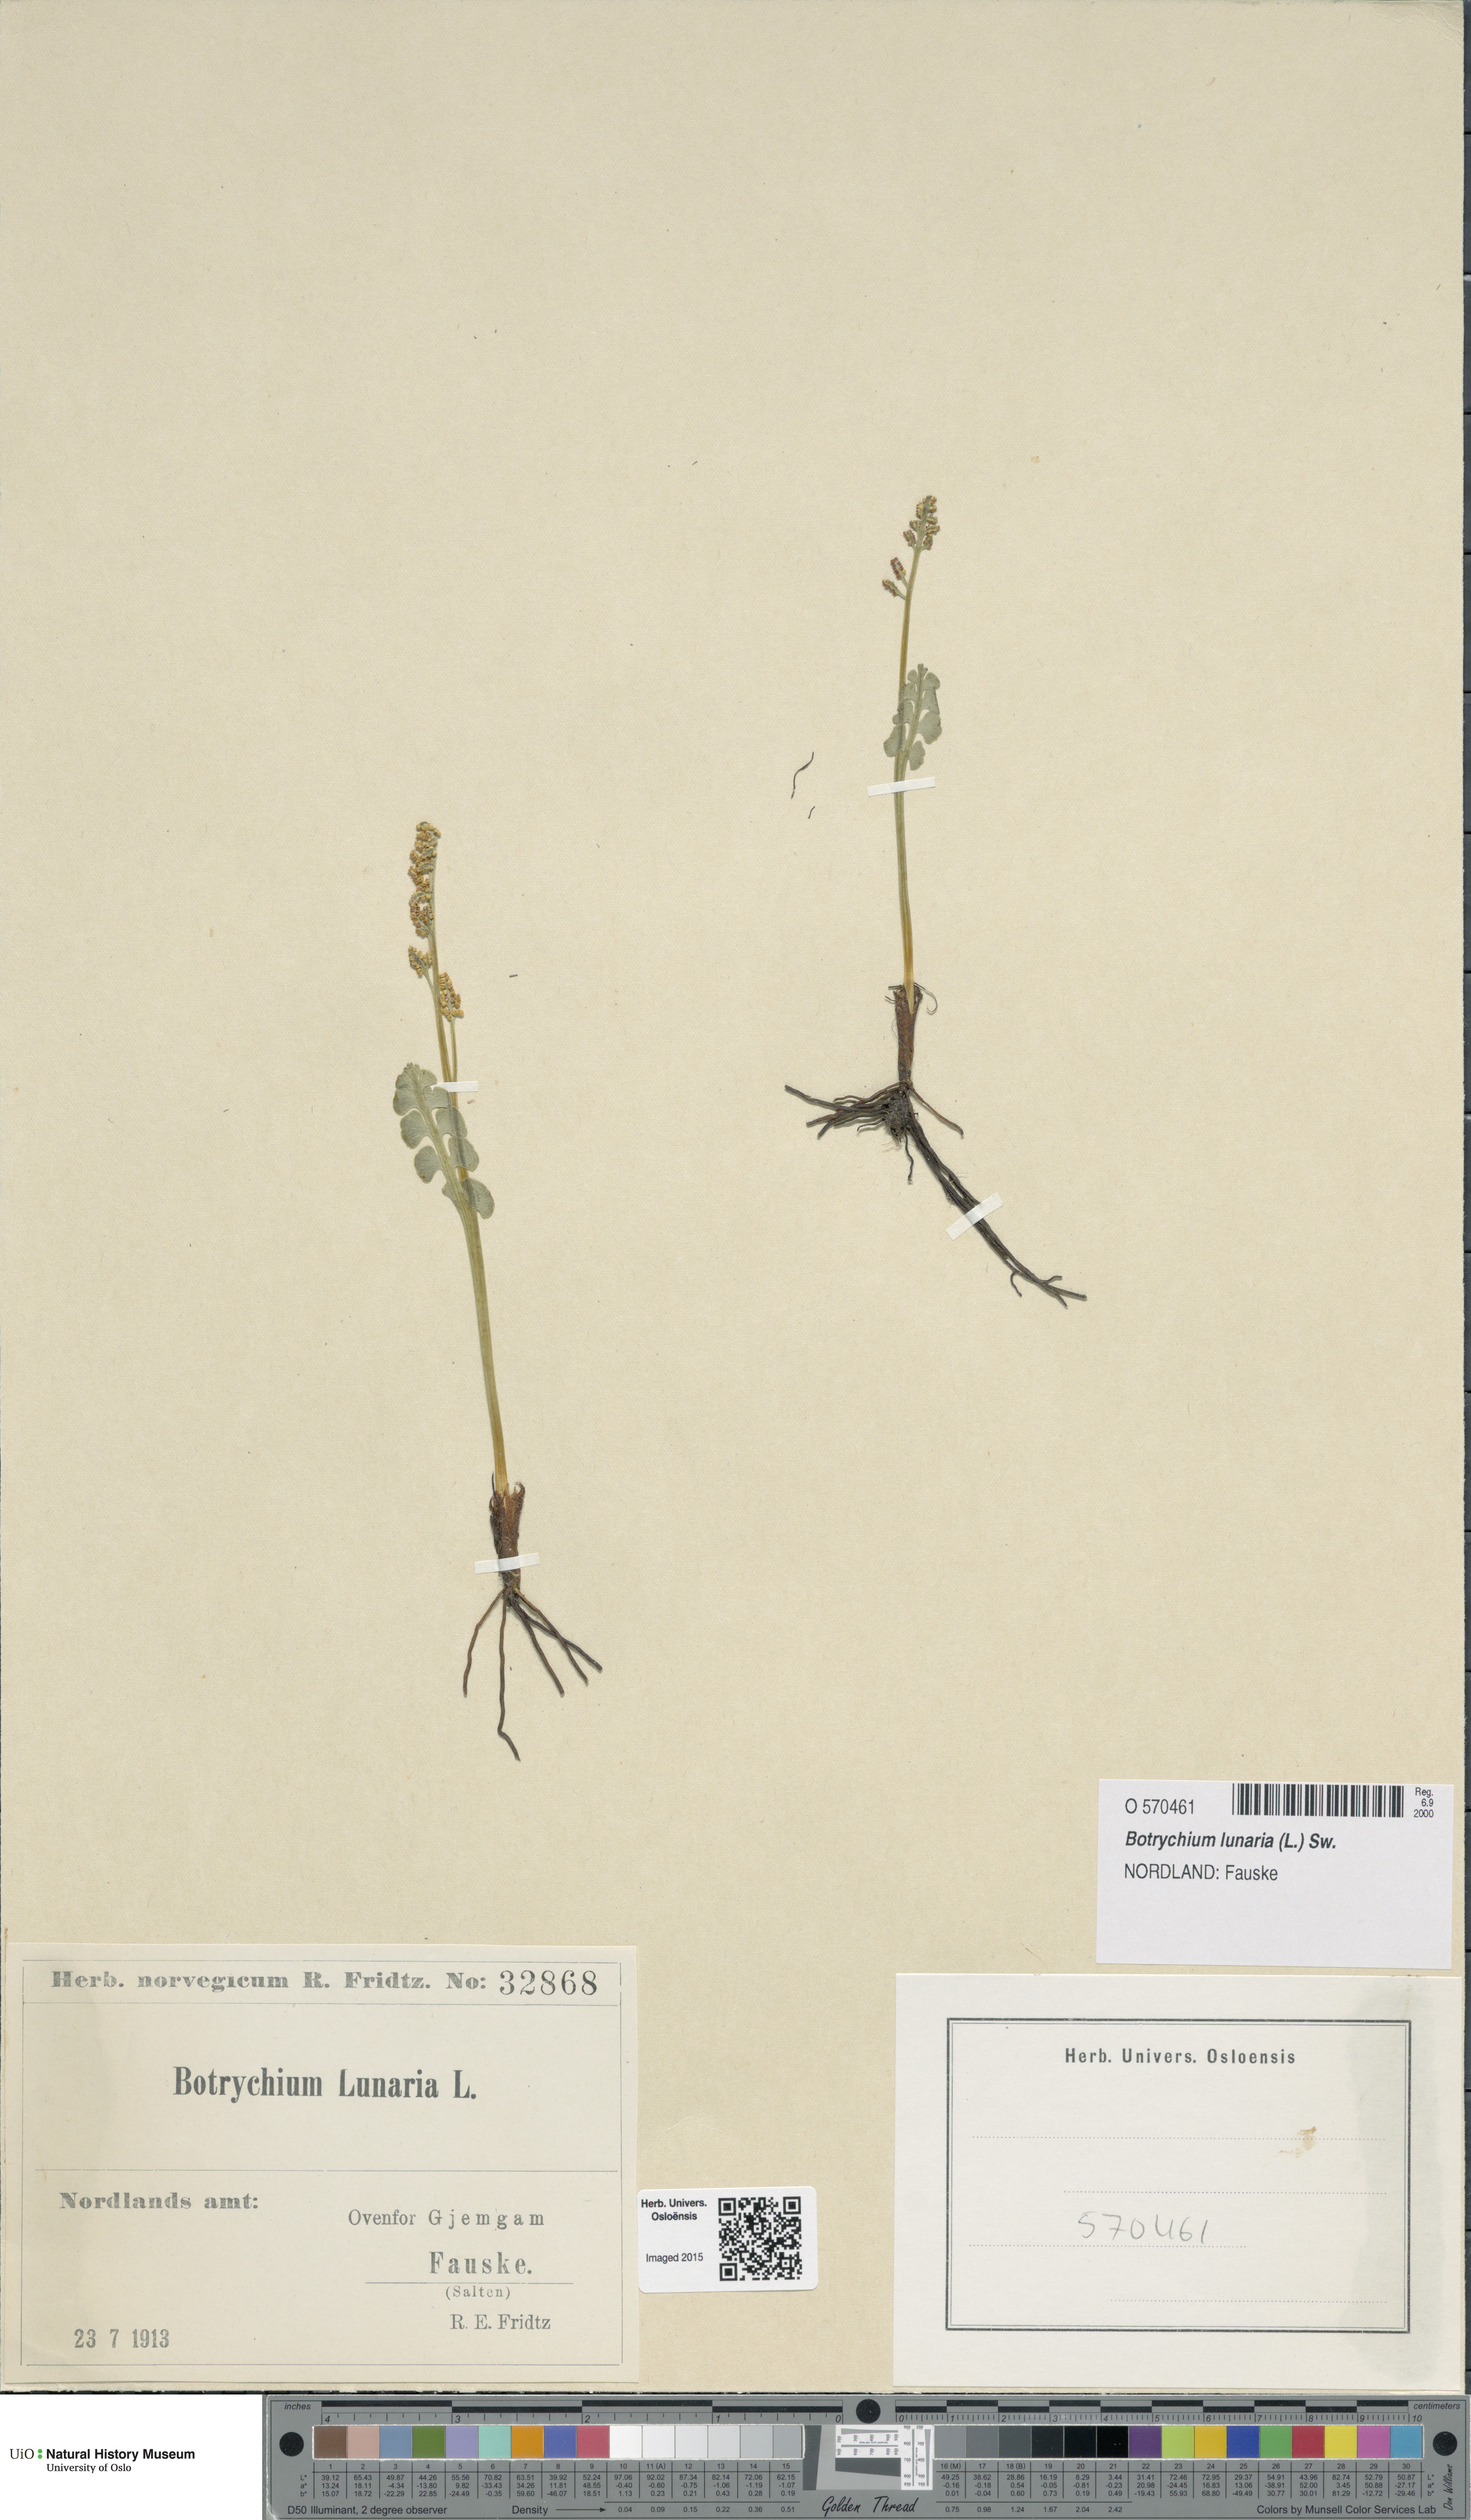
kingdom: Plantae
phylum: Tracheophyta
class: Polypodiopsida
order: Ophioglossales
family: Ophioglossaceae
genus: Botrychium
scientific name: Botrychium lunaria
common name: Moonwort
